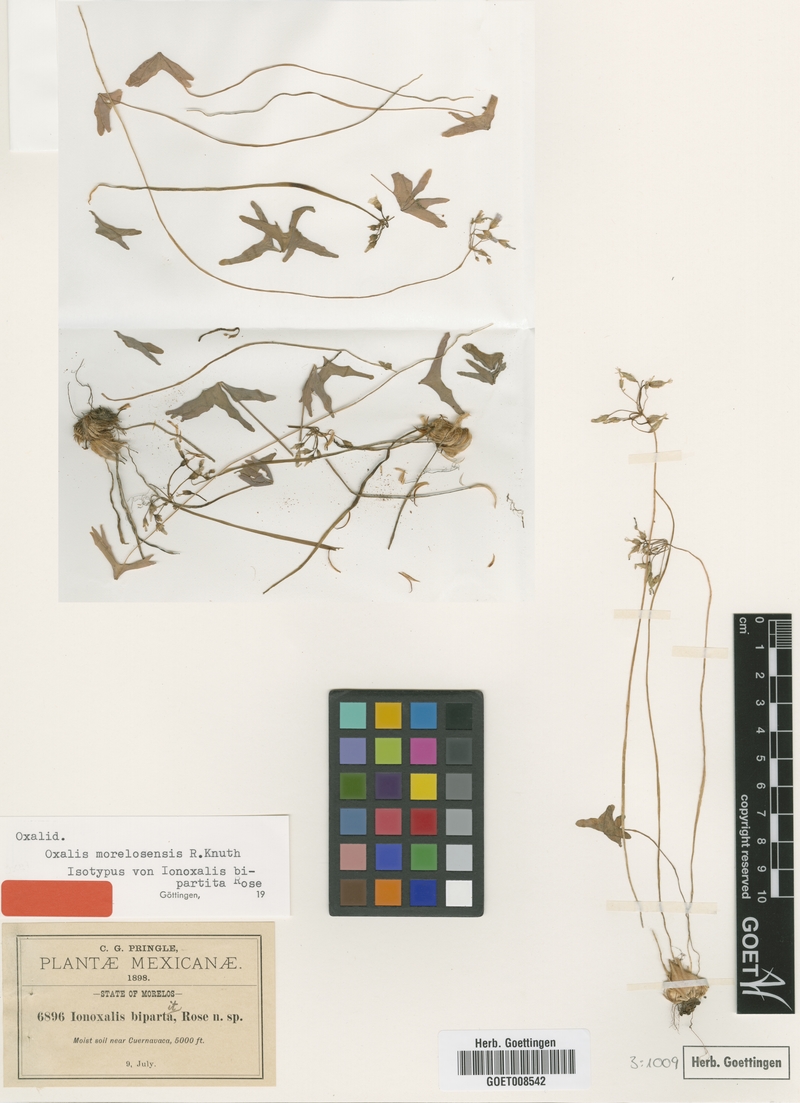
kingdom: Plantae
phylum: Tracheophyta
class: Magnoliopsida
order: Oxalidales
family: Oxalidaceae
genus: Oxalis
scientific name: Oxalis latifolia
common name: Garden pink-sorrel
